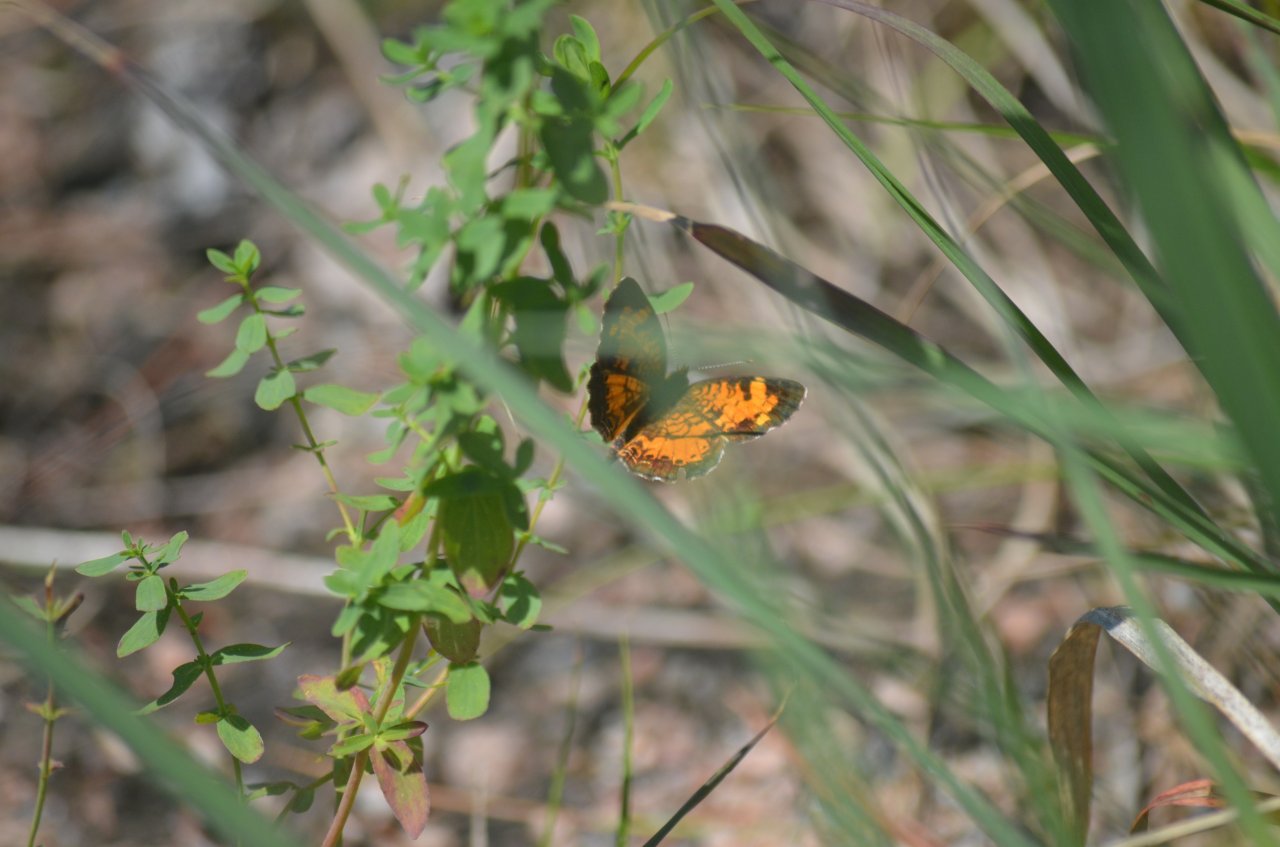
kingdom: Animalia
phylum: Arthropoda
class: Insecta
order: Lepidoptera
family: Nymphalidae
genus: Phyciodes
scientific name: Phyciodes tharos
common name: Northern Crescent
